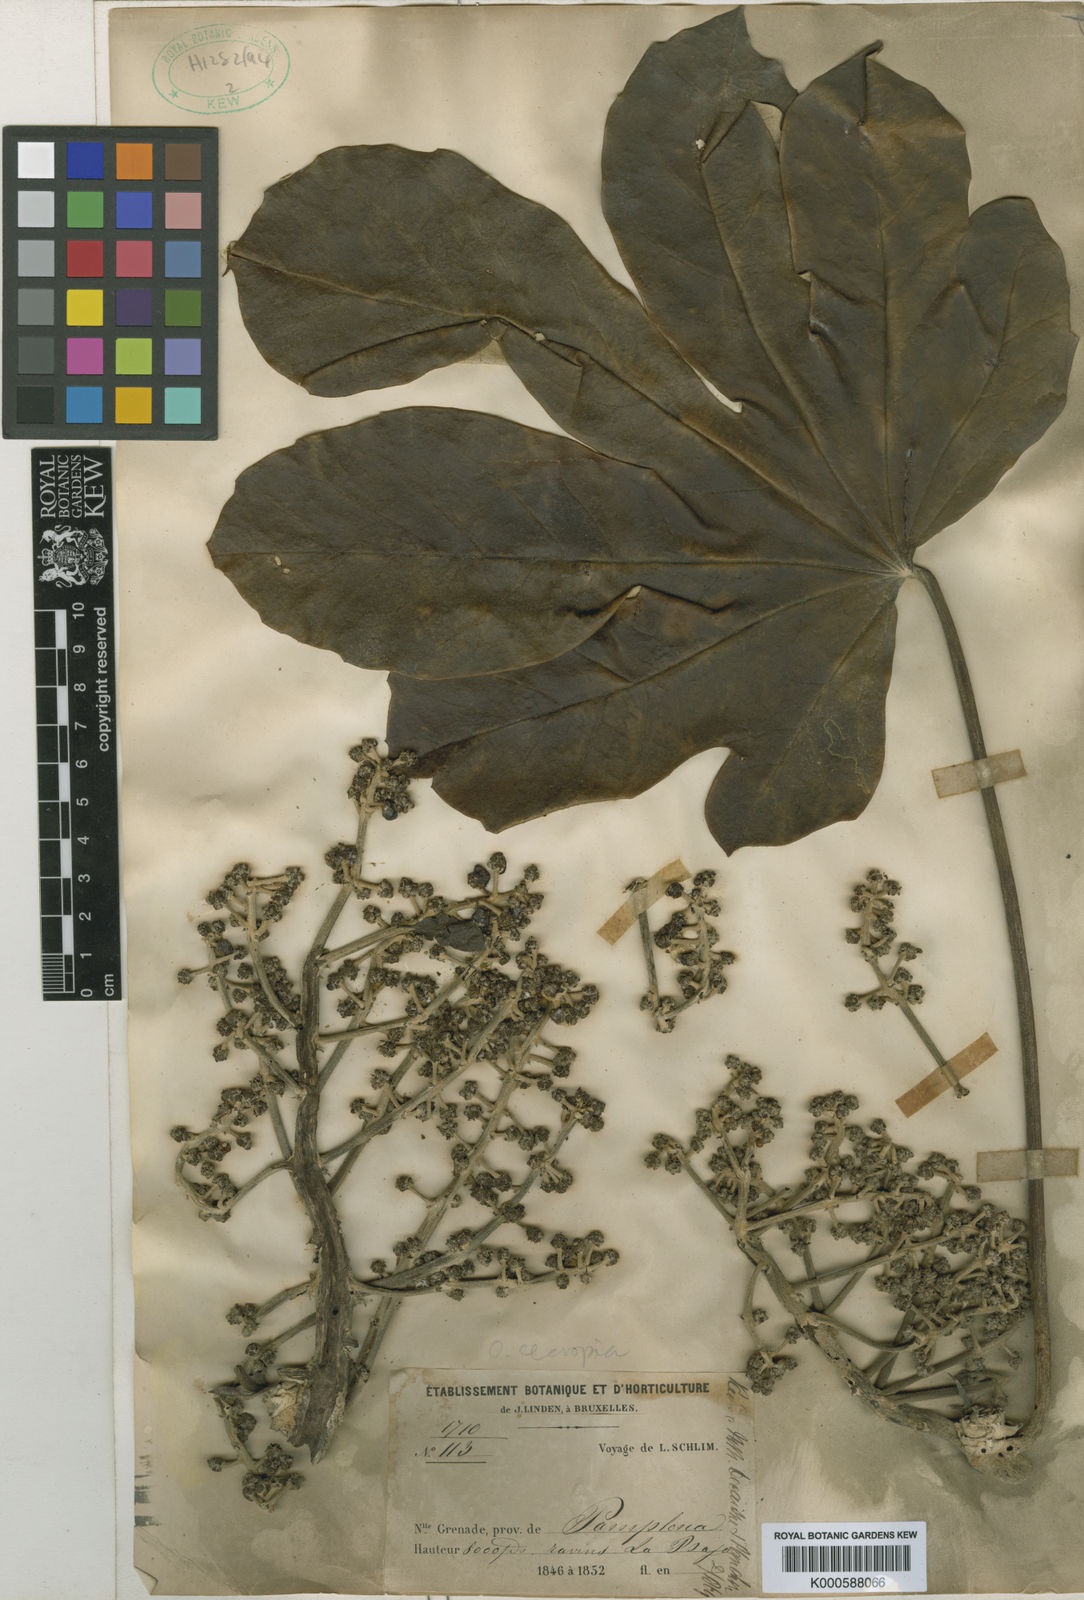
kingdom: Plantae
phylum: Tracheophyta
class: Magnoliopsida
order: Apiales
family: Araliaceae
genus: Oreopanax
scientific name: Oreopanax
